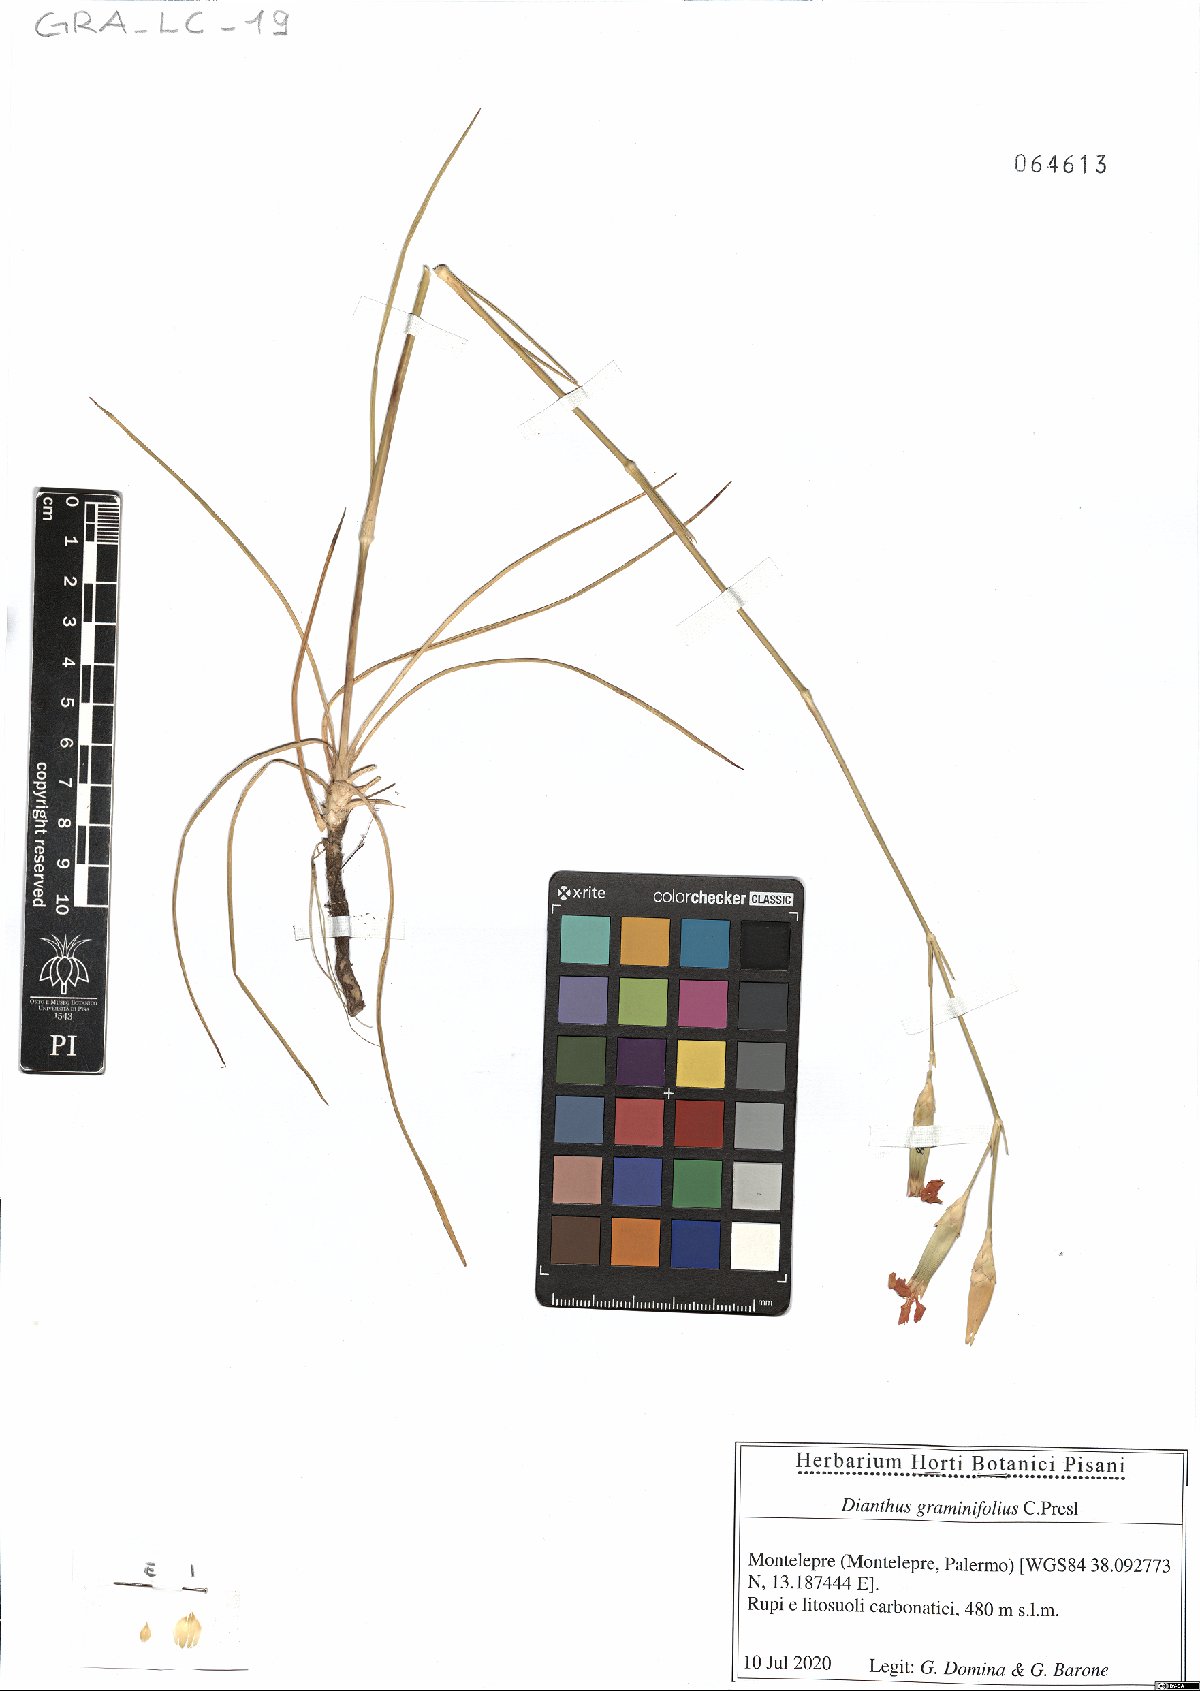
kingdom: Plantae
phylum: Tracheophyta
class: Magnoliopsida
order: Caryophyllales
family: Caryophyllaceae
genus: Dianthus
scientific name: Dianthus graminifolius
